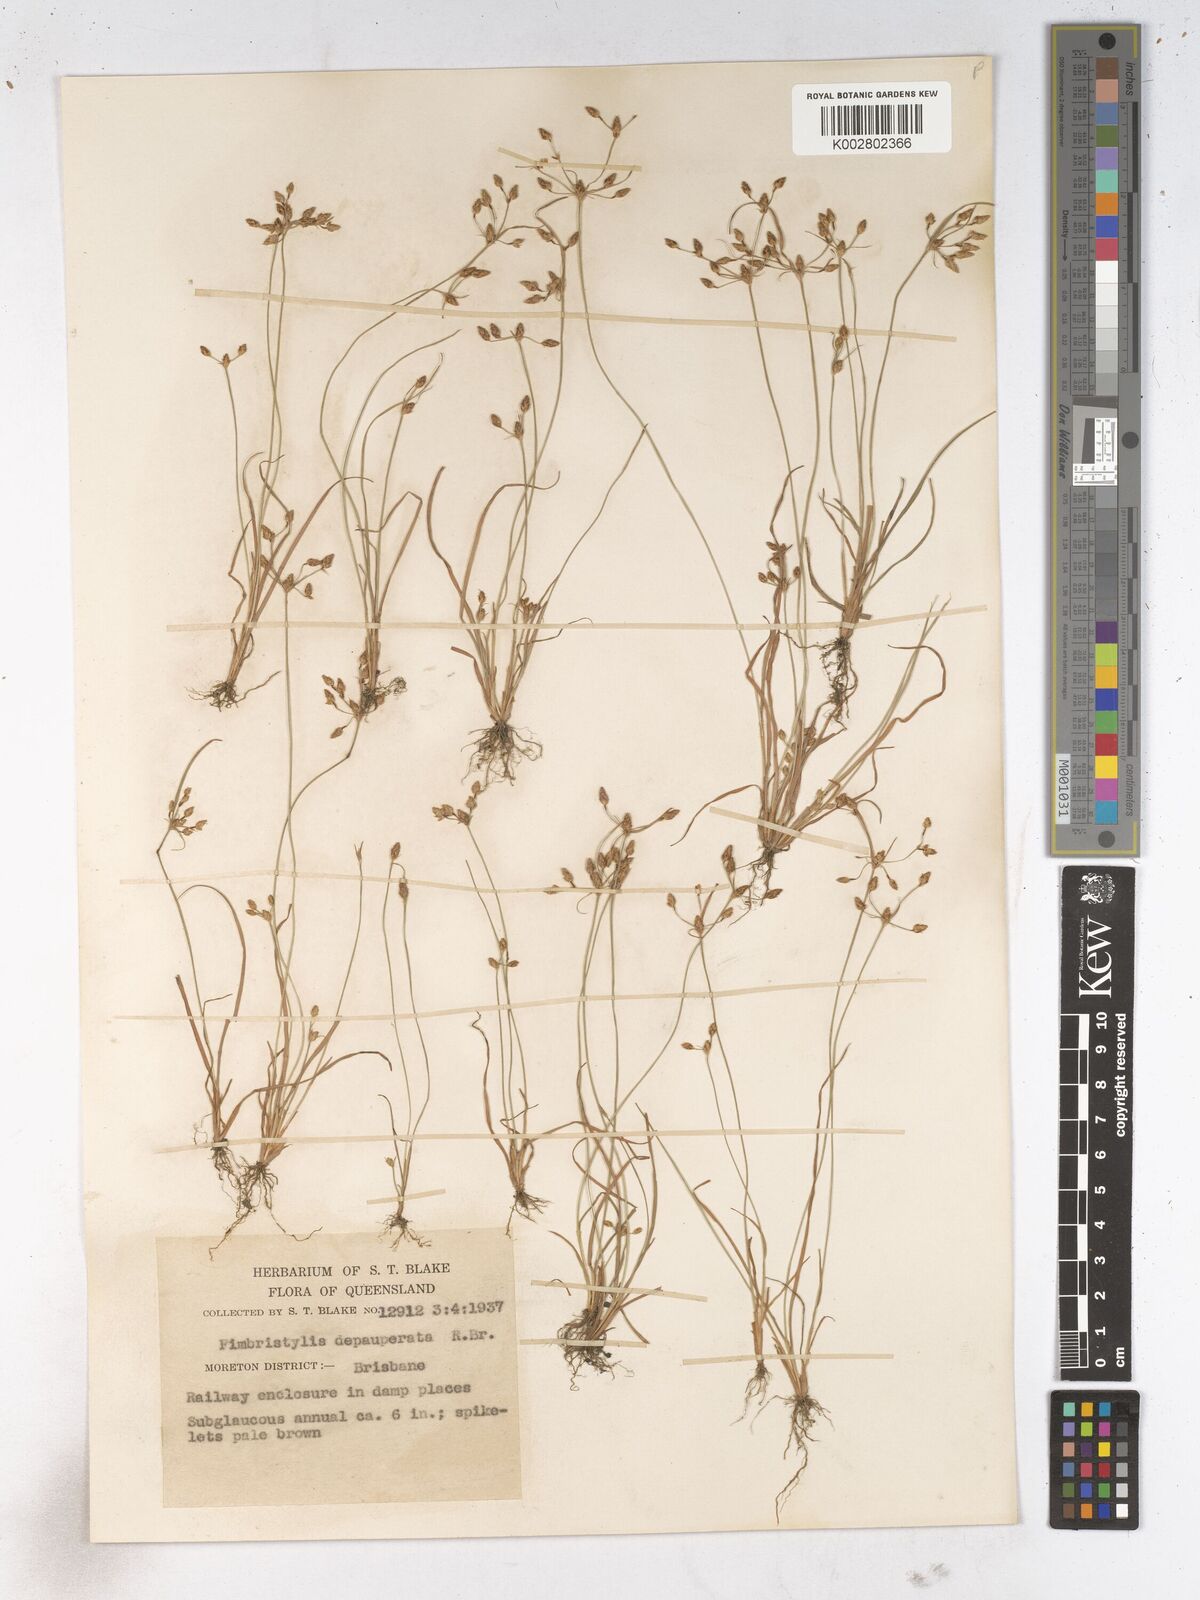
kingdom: Plantae
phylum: Tracheophyta
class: Liliopsida
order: Poales
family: Cyperaceae
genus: Fimbristylis
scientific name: Fimbristylis dichotoma
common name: Forked fimbry
